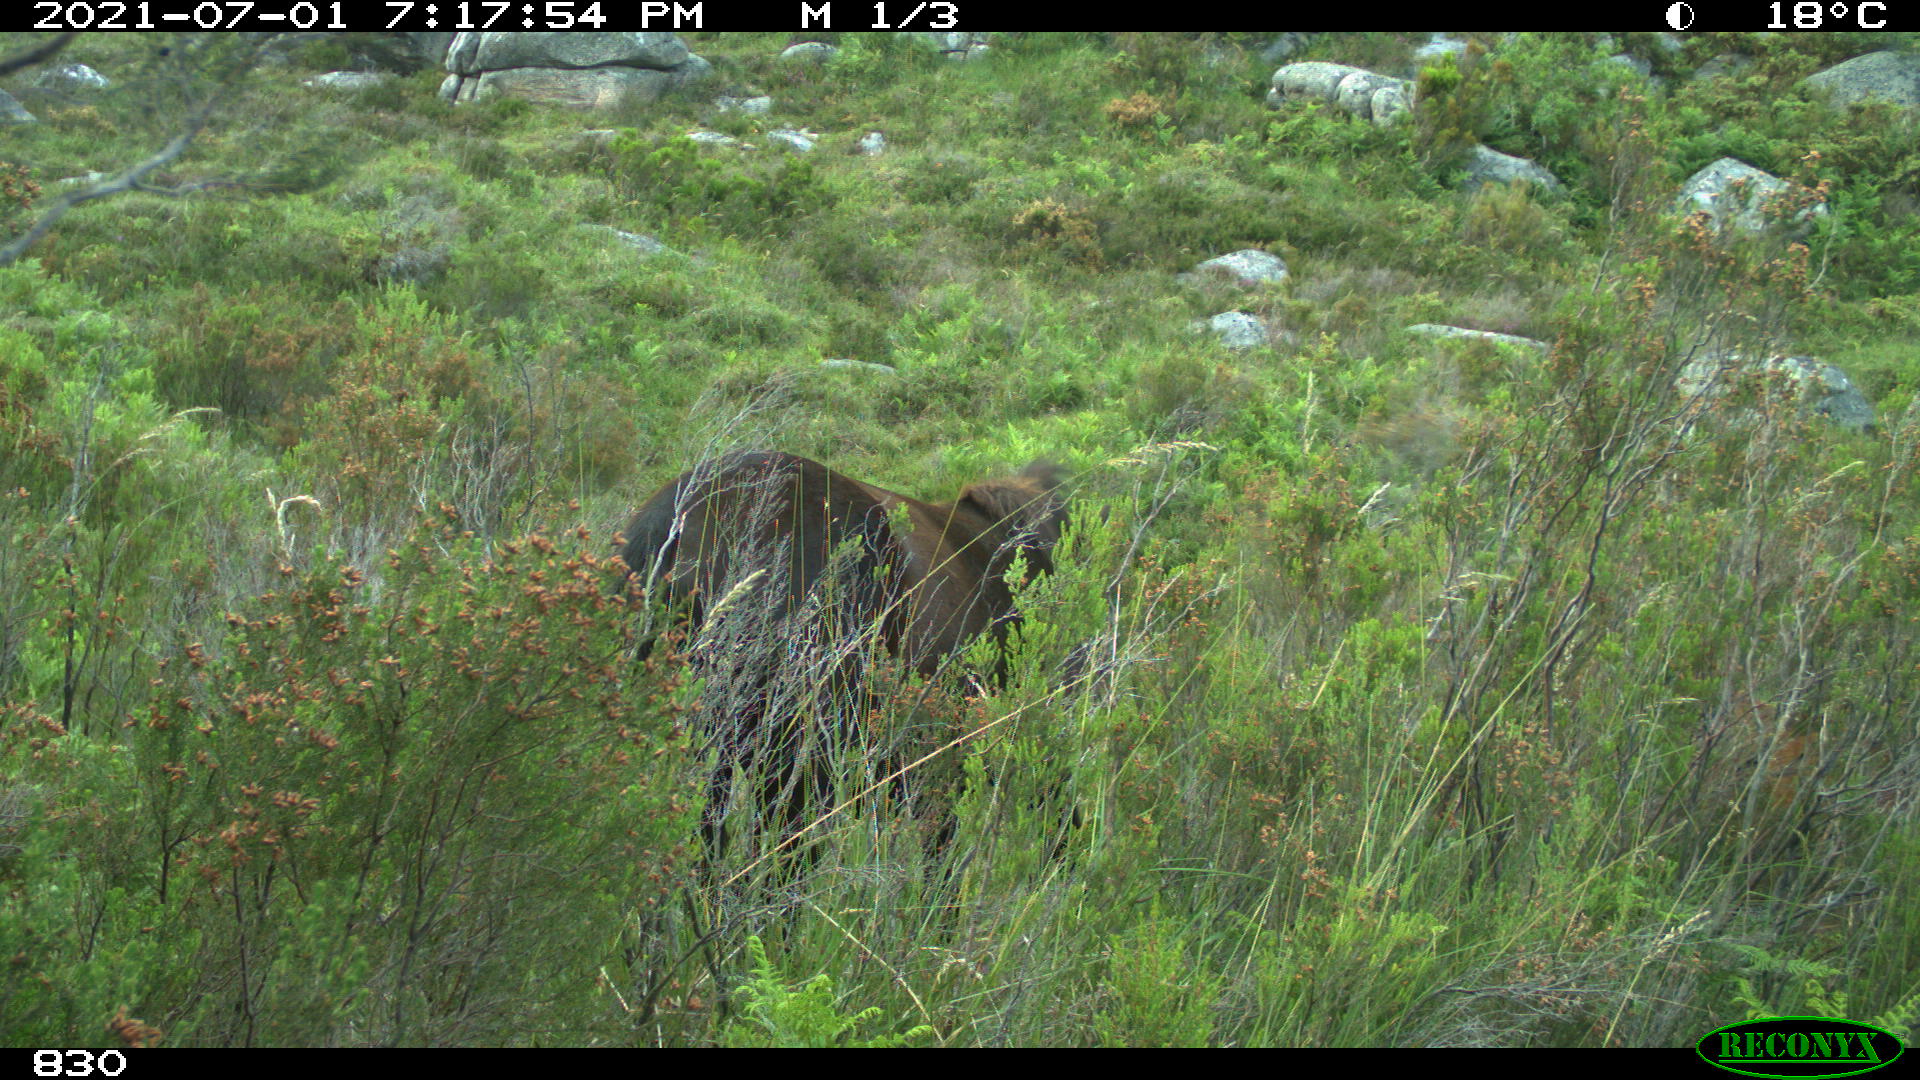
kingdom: Animalia
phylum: Chordata
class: Mammalia
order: Perissodactyla
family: Equidae
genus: Equus
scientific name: Equus caballus
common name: Horse
